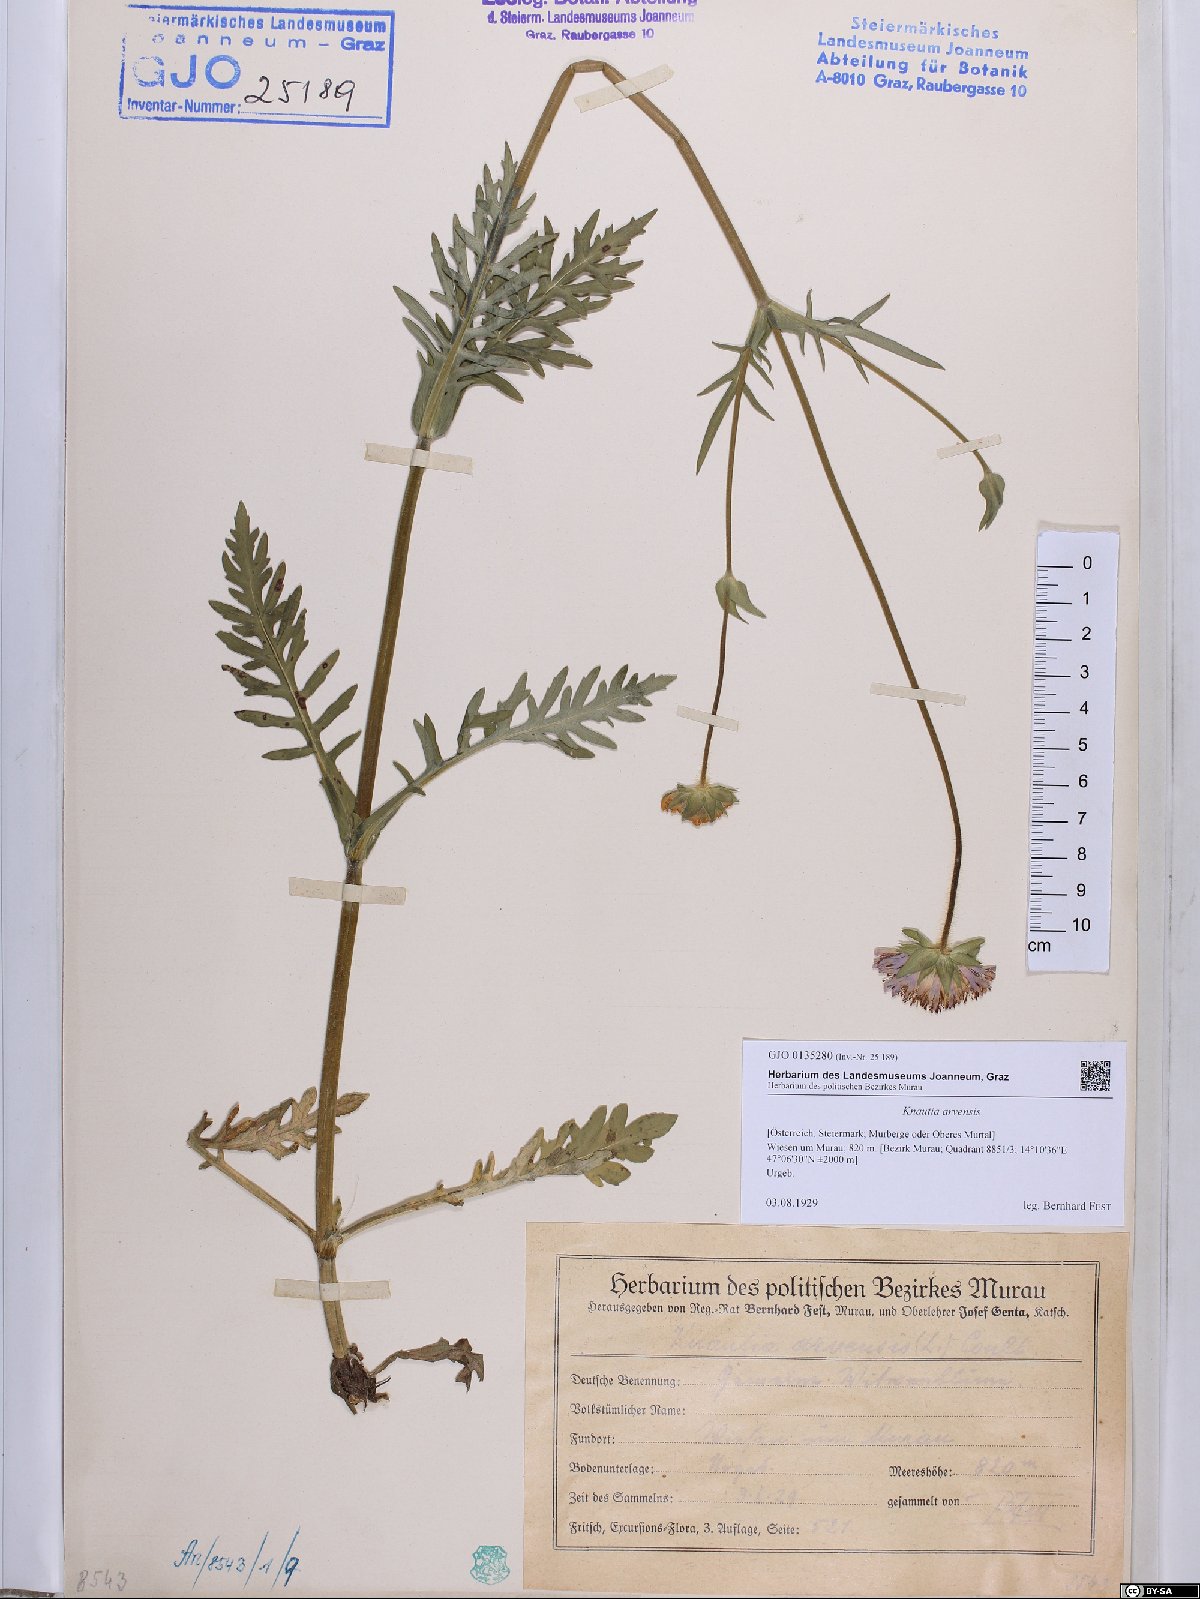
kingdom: Plantae
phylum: Tracheophyta
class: Magnoliopsida
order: Dipsacales
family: Caprifoliaceae
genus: Knautia
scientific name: Knautia arvensis
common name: Field scabiosa
